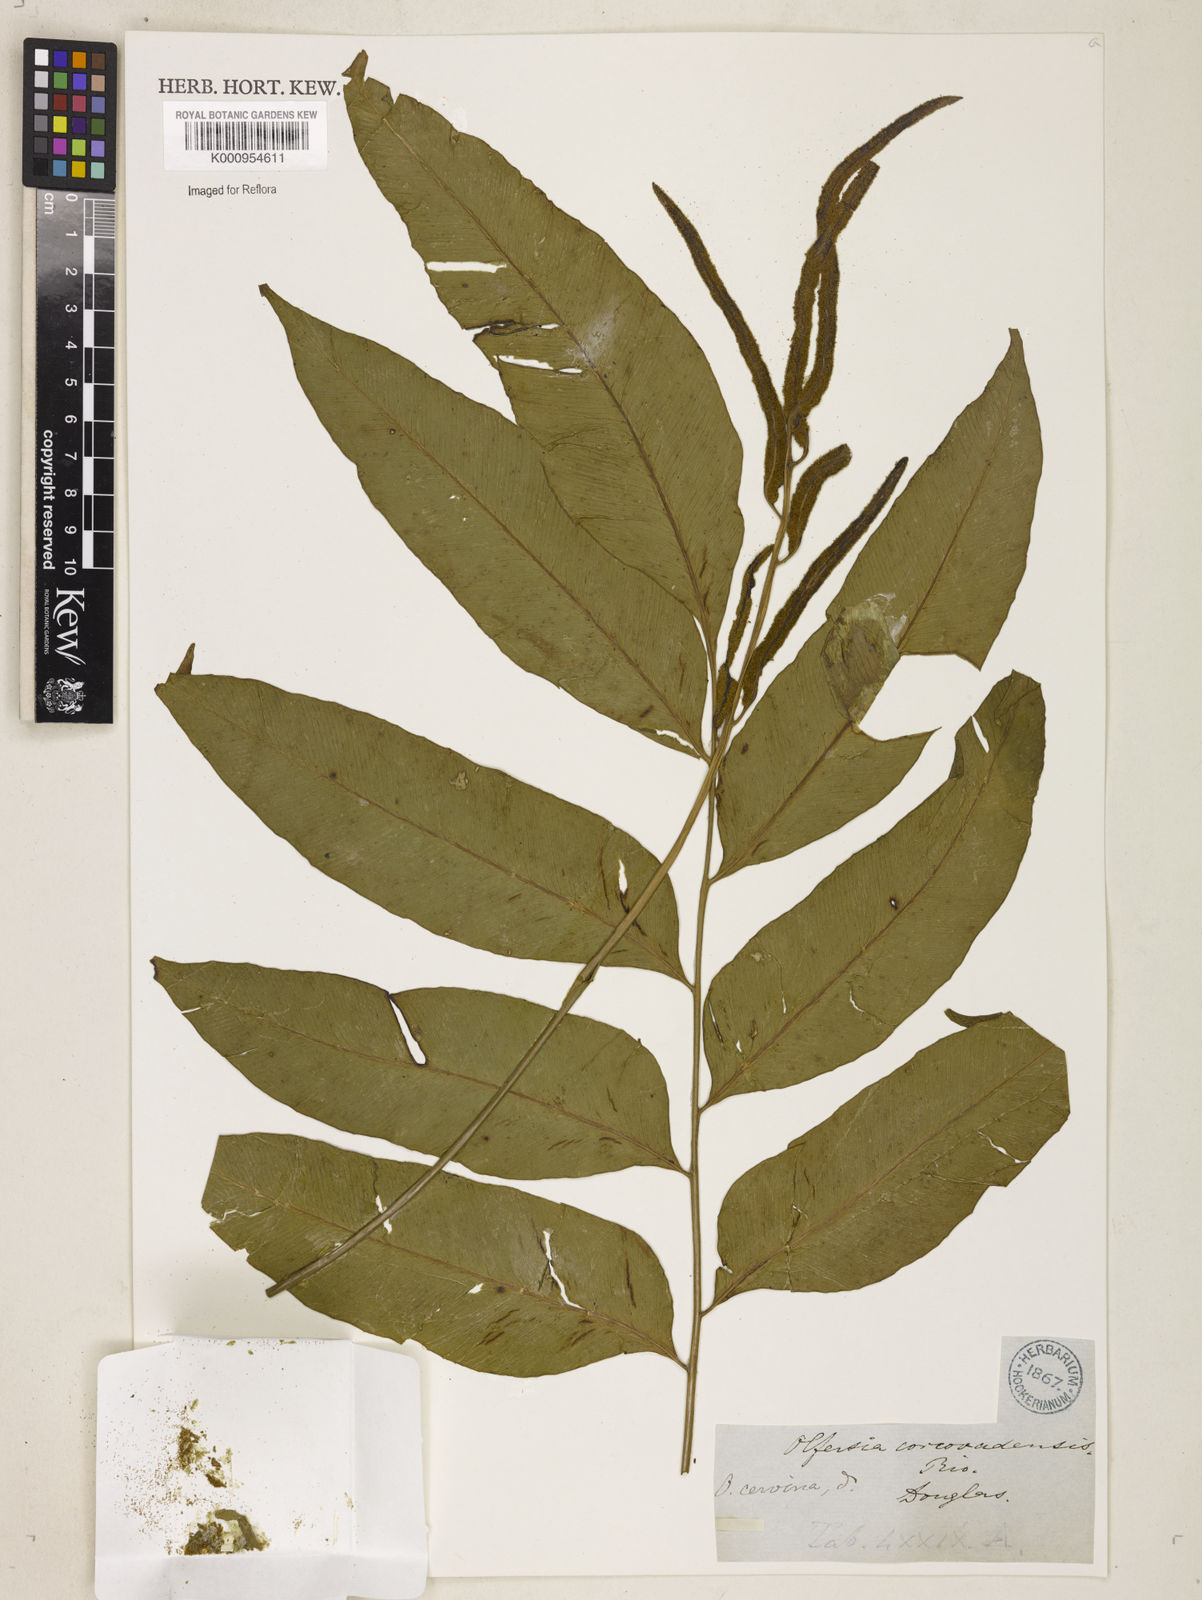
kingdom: Plantae
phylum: Tracheophyta
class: Polypodiopsida
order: Polypodiales
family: Dryopteridaceae
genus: Polystichum
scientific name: Polystichum
